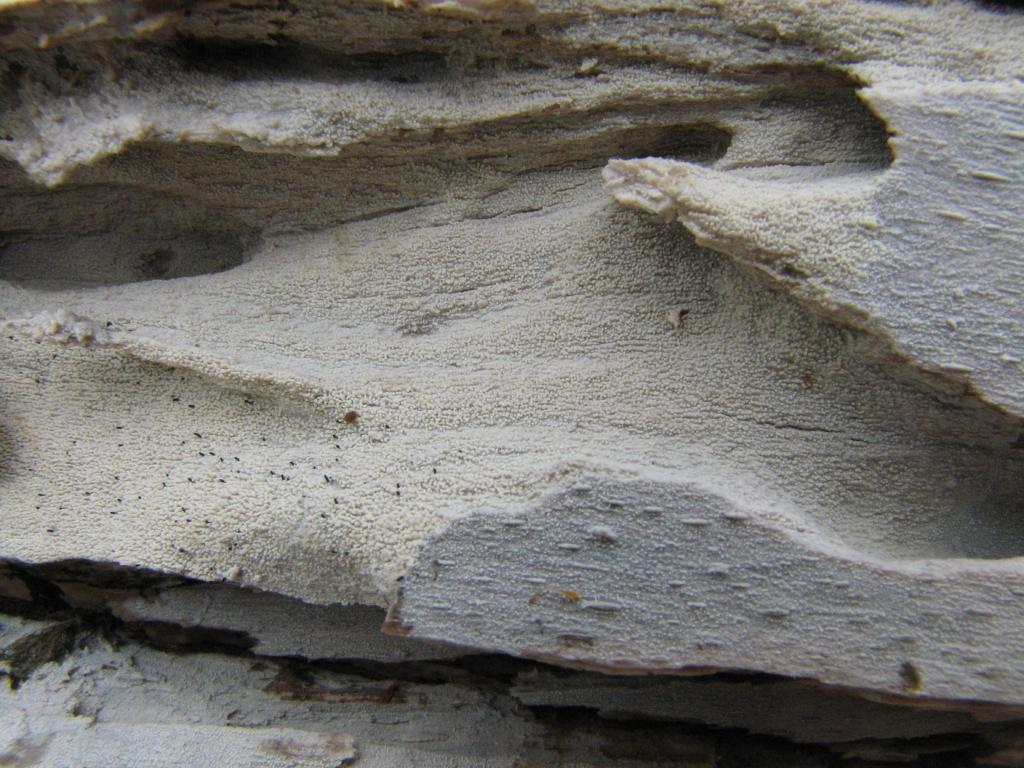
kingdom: Fungi
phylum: Basidiomycota
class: Agaricomycetes
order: Hymenochaetales
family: Hyphodontiaceae
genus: Hyphodontia
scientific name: Hyphodontia microspora
